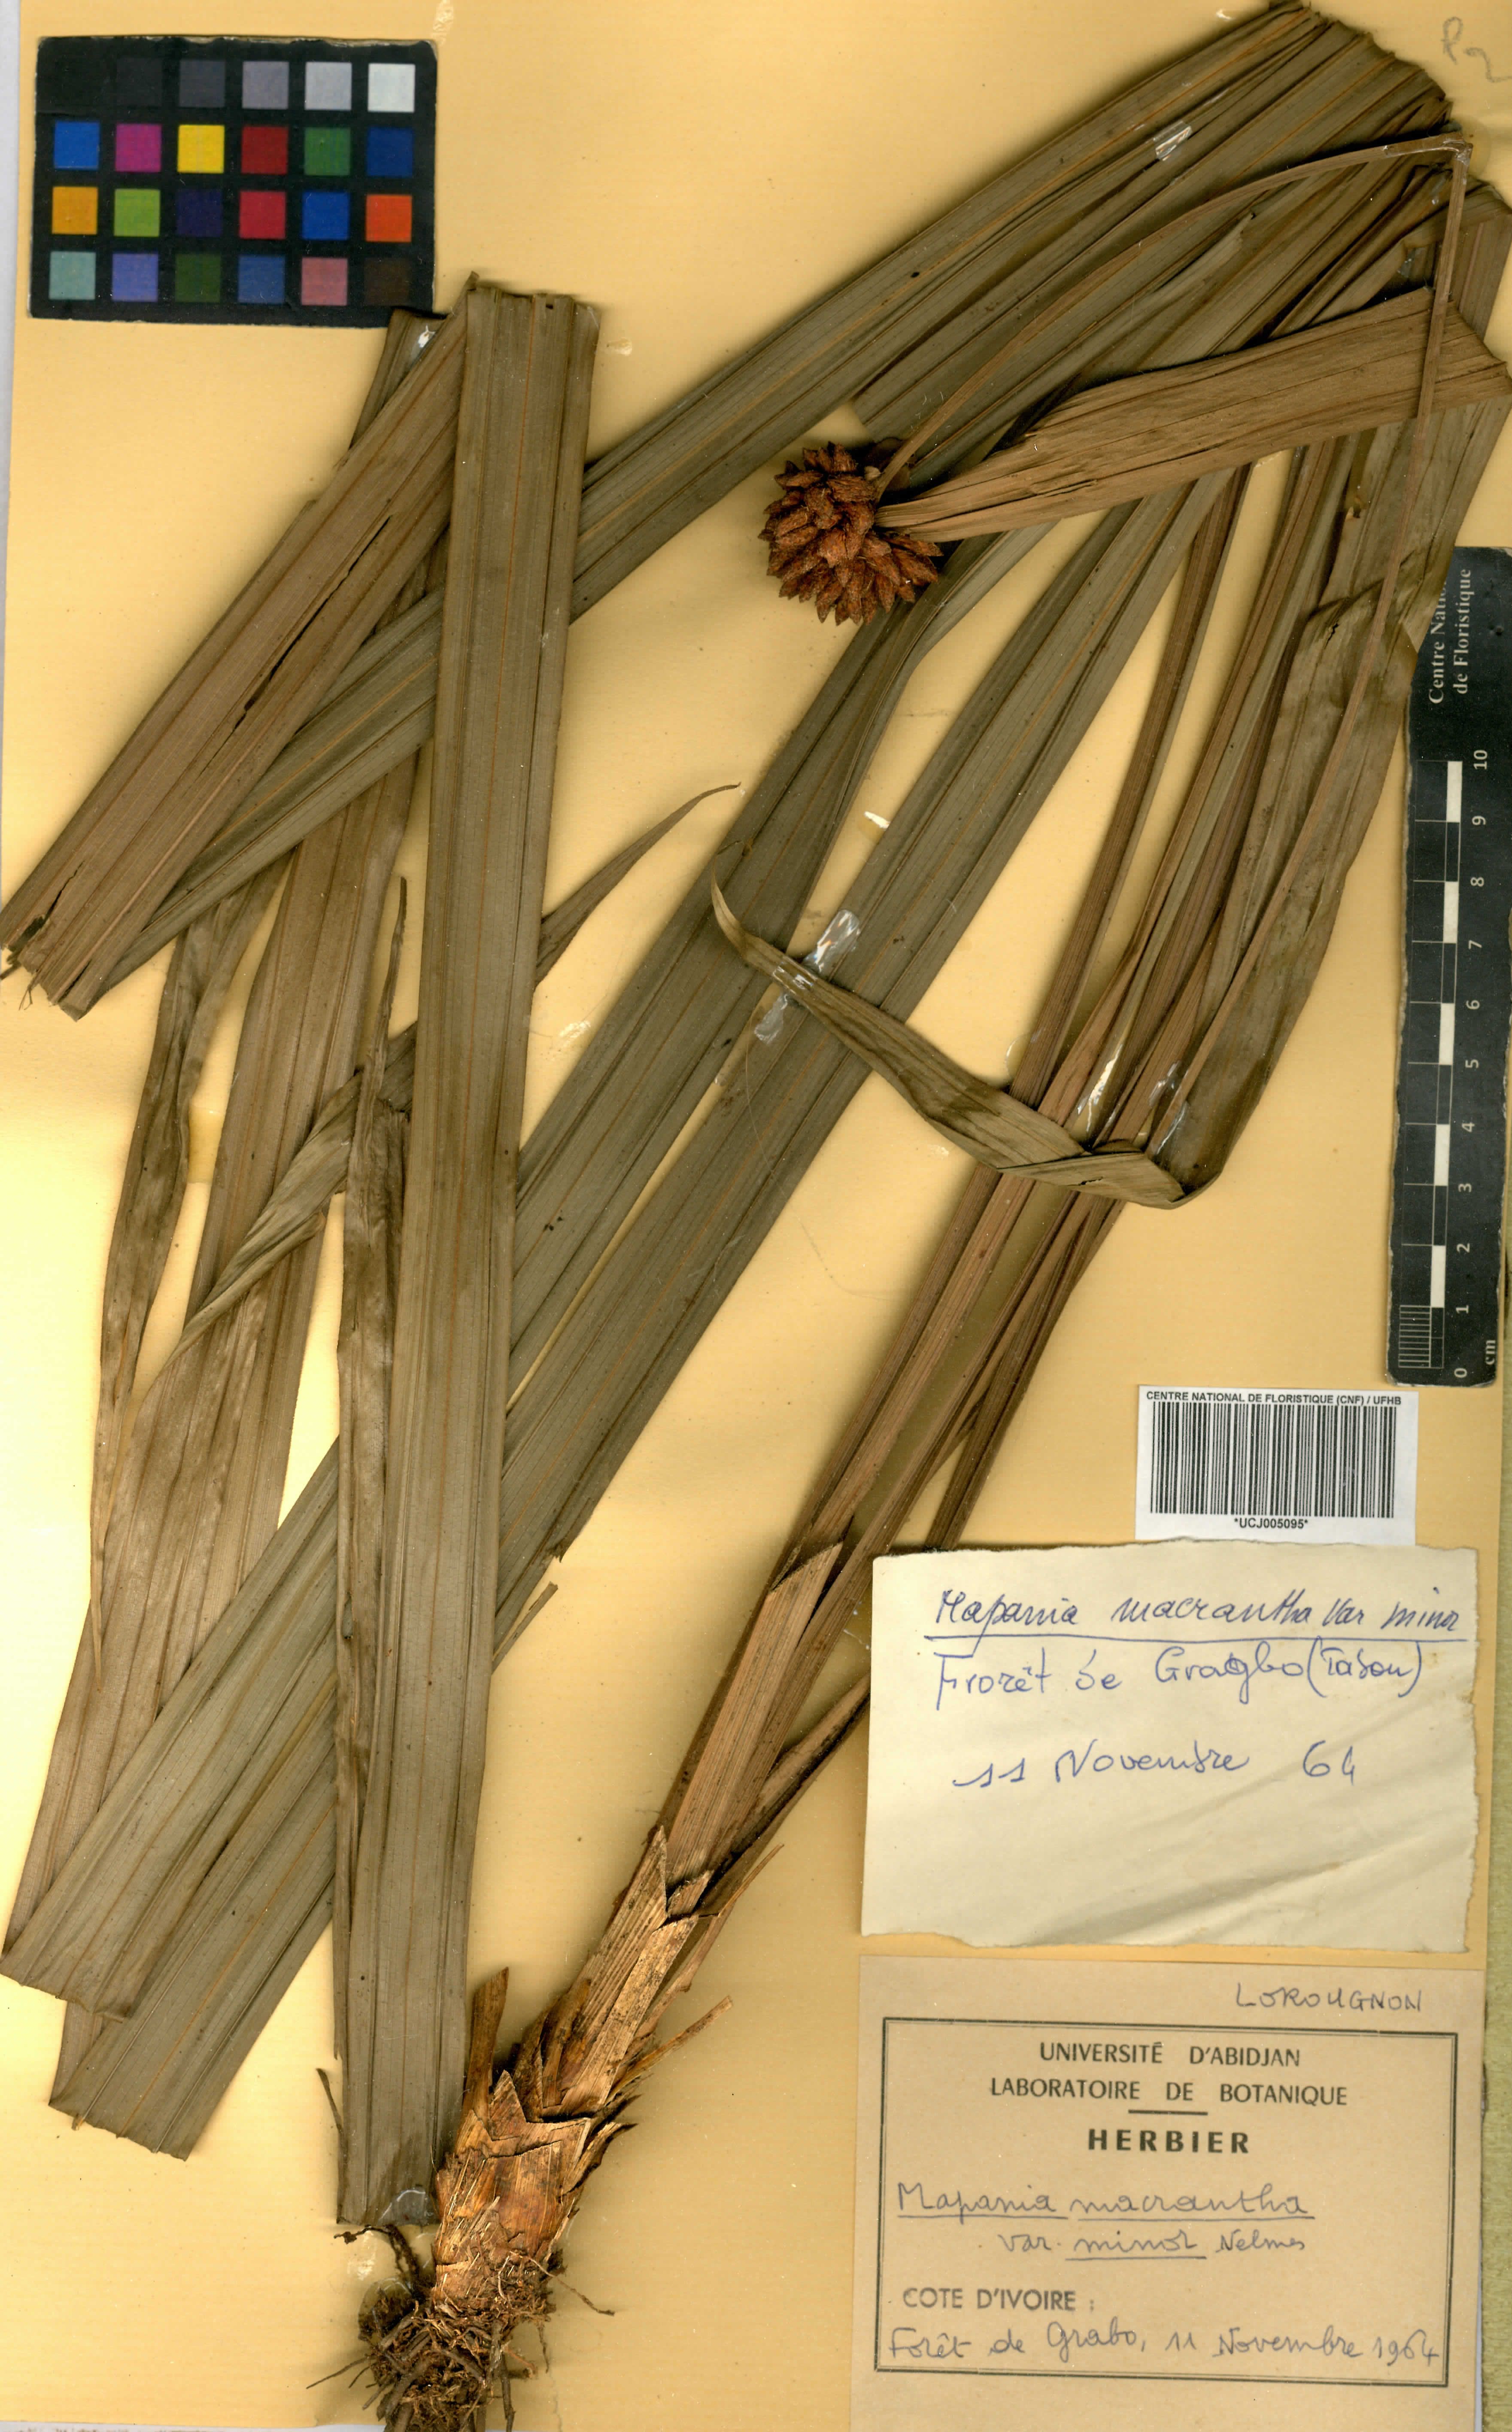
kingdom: Plantae
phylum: Tracheophyta
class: Liliopsida
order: Poales
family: Cyperaceae
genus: Mapania
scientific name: Mapania minor
